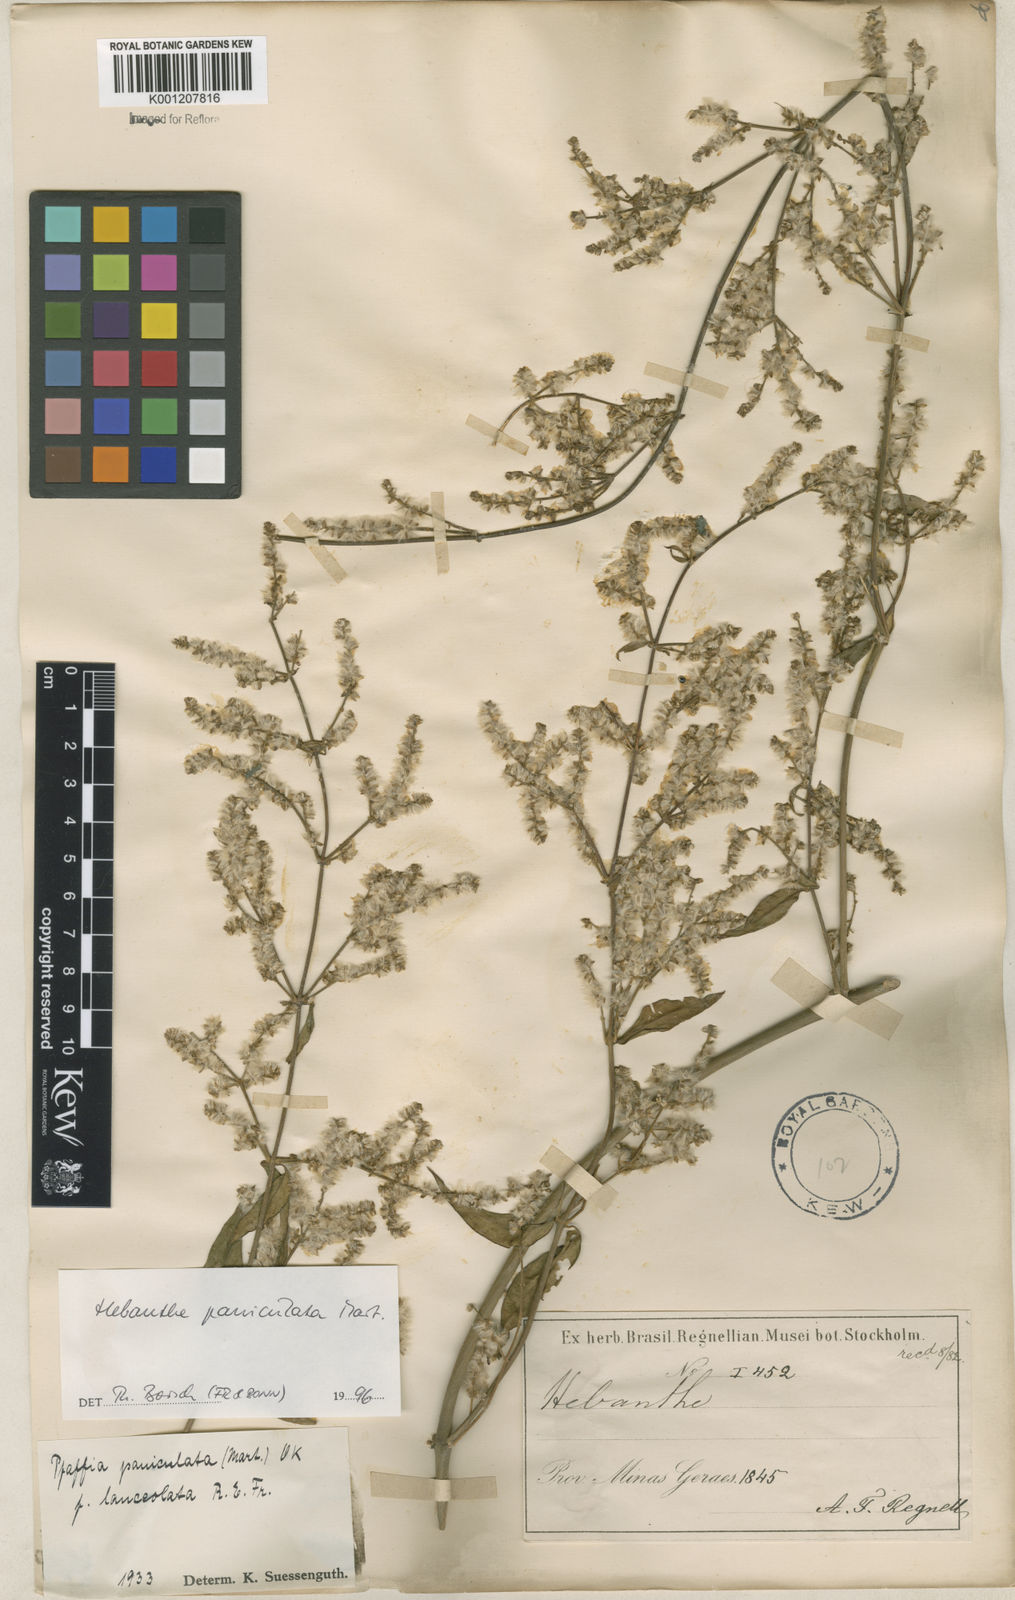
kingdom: Plantae
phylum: Tracheophyta
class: Magnoliopsida
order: Caryophyllales
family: Amaranthaceae
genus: Hebanthe
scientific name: Hebanthe erianthos
